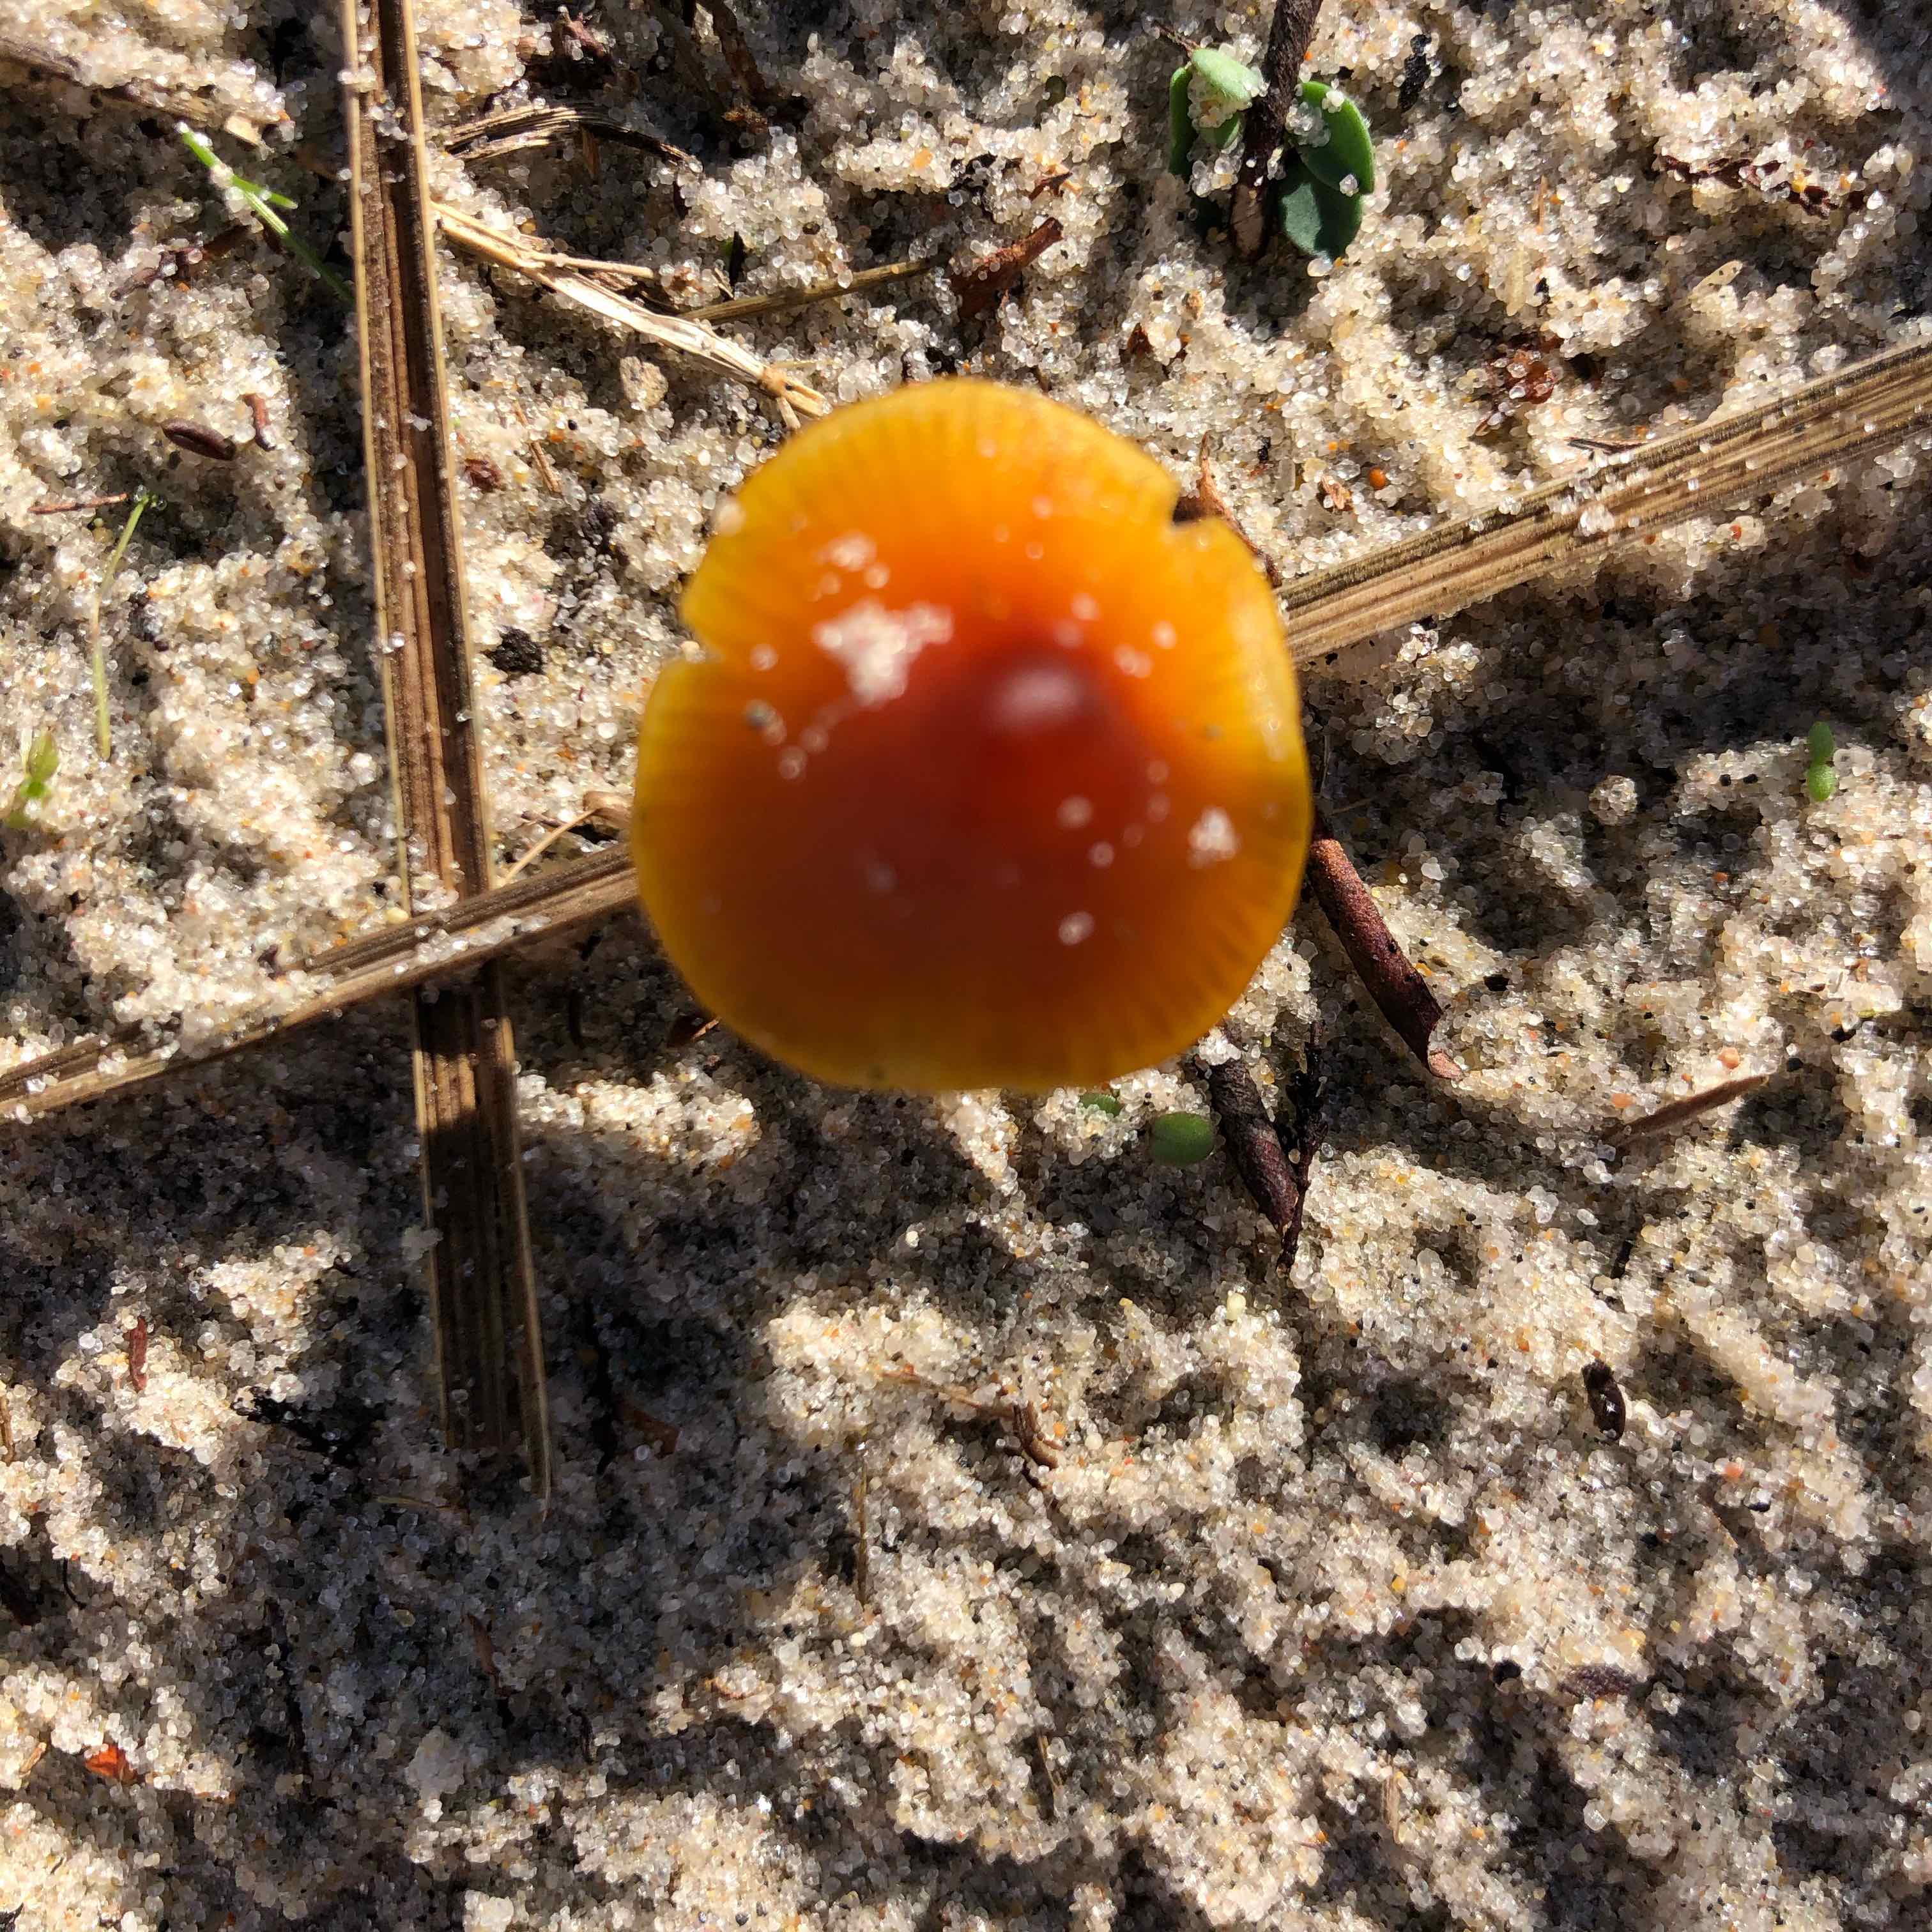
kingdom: Fungi
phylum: Basidiomycota
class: Agaricomycetes
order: Agaricales
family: Hygrophoraceae
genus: Hygrocybe
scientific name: Hygrocybe conicoides
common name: klit-vokshat
